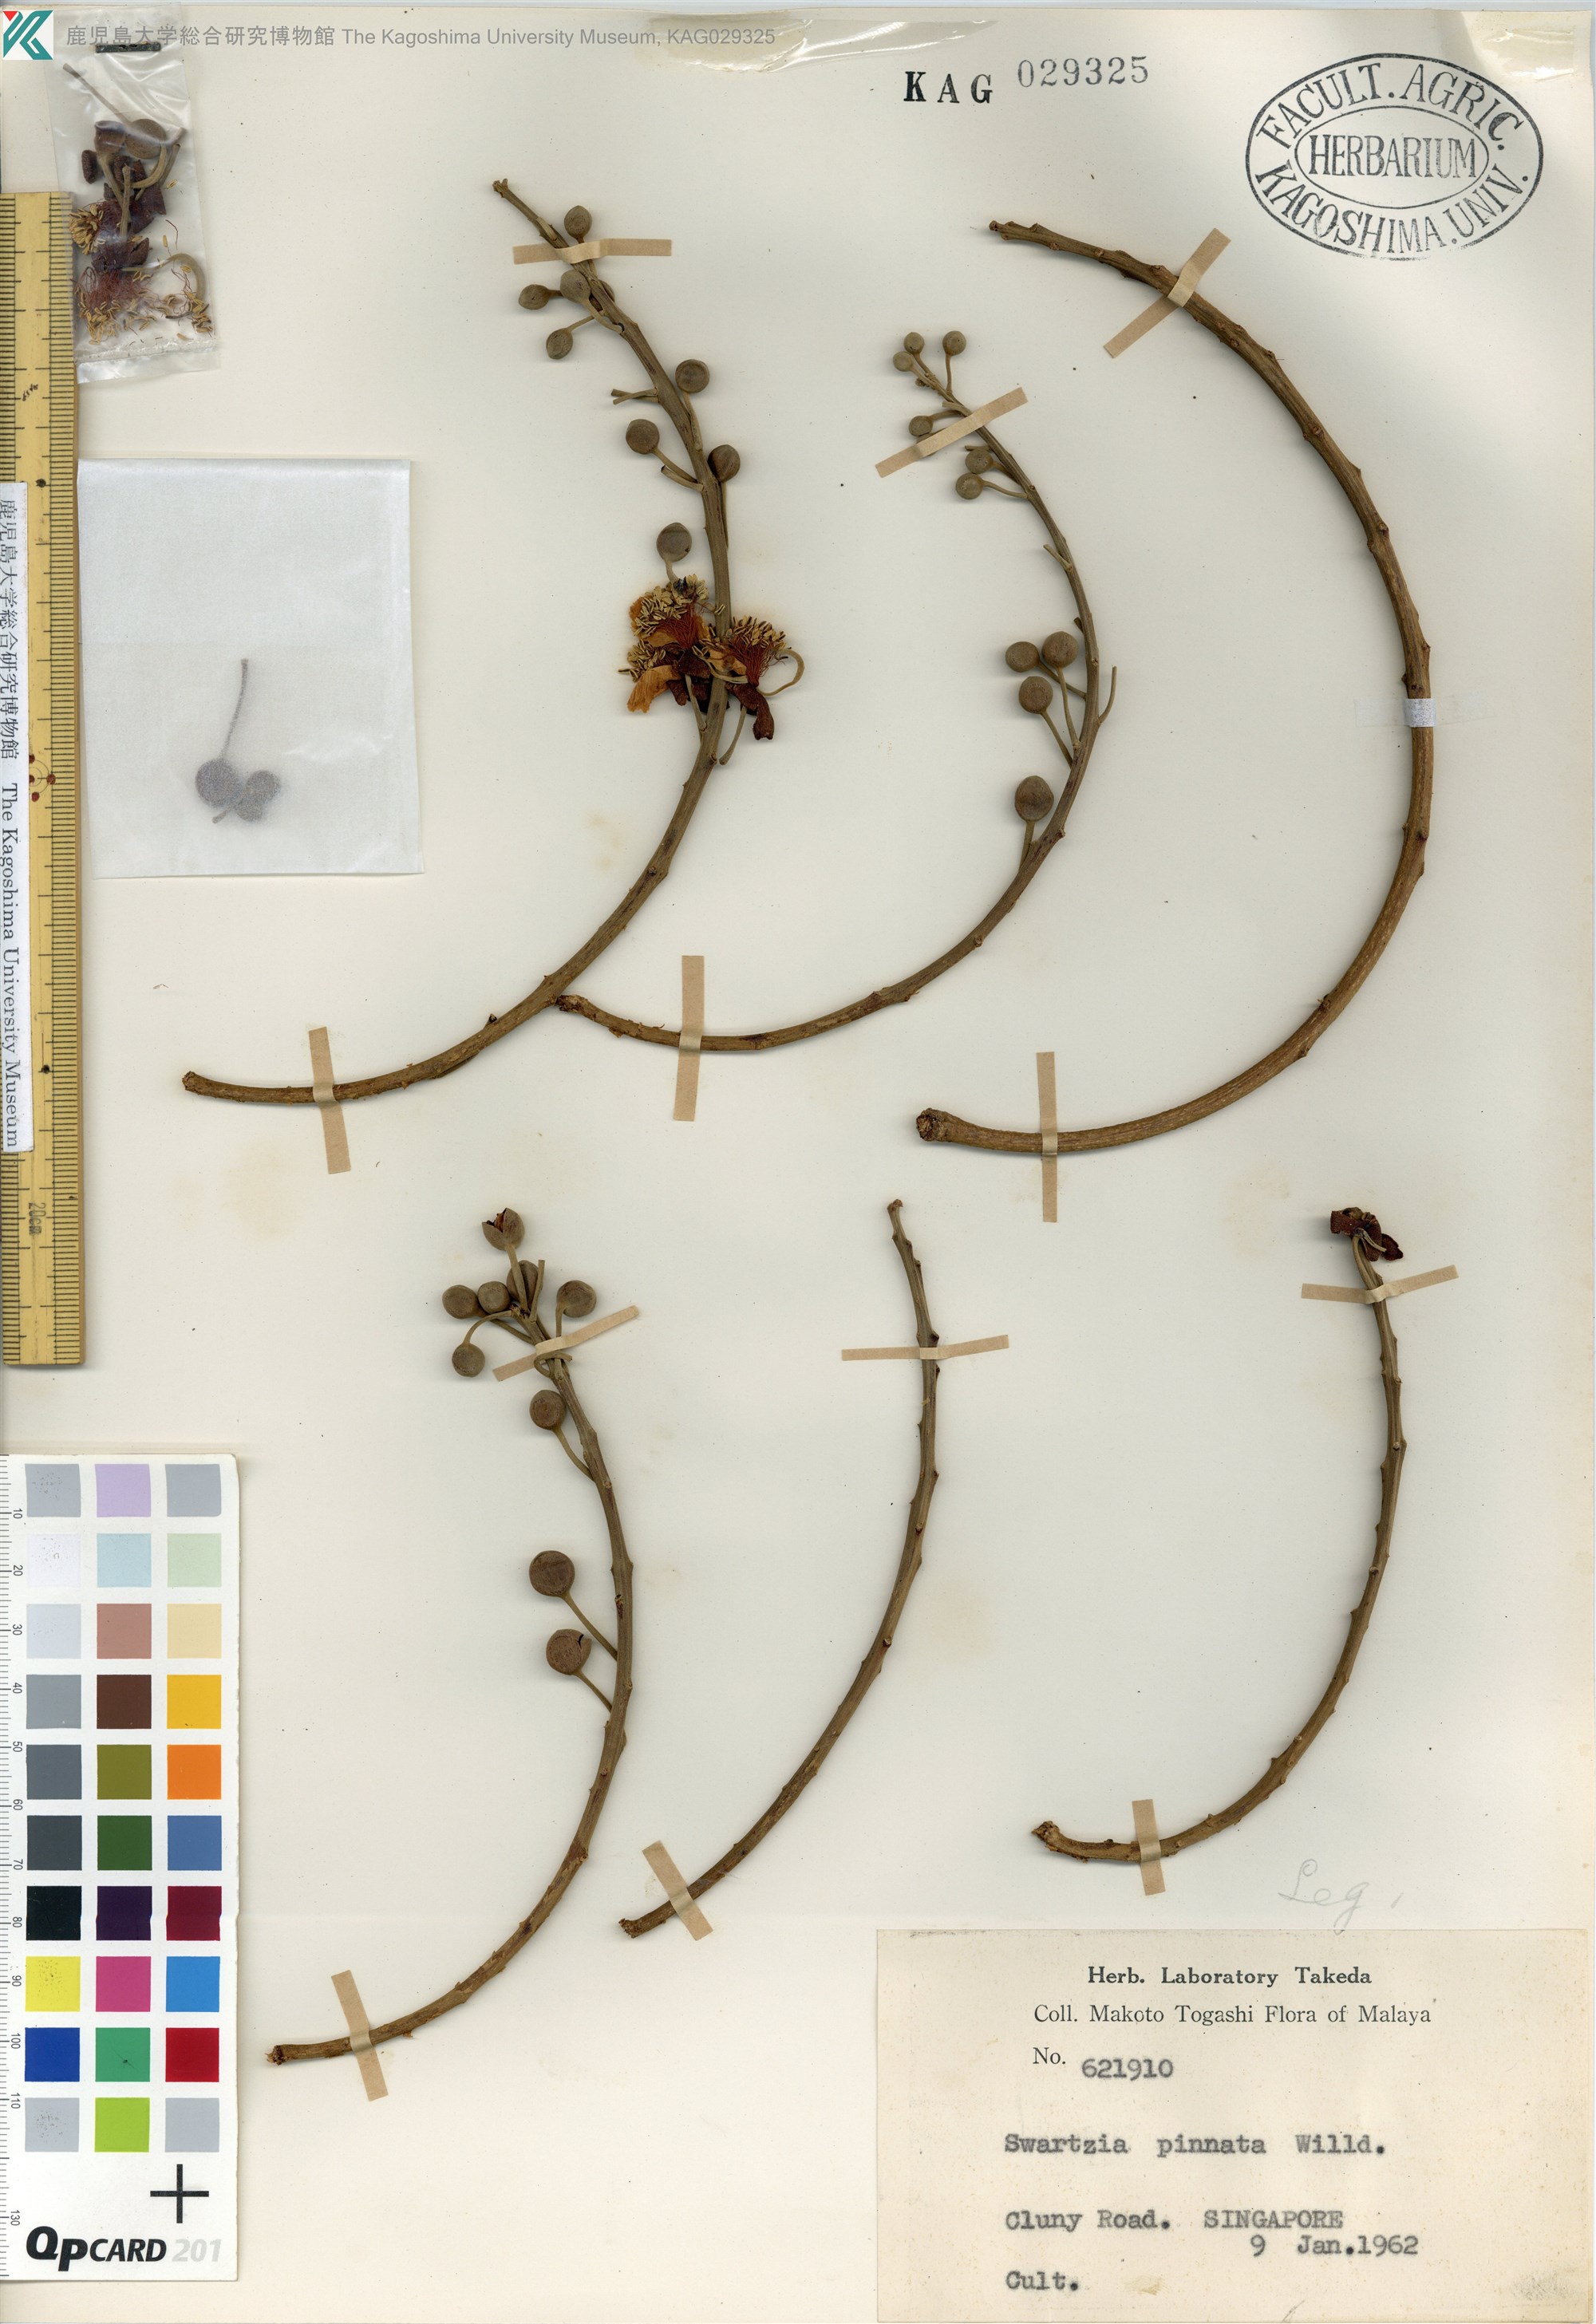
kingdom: Plantae
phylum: Tracheophyta
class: Magnoliopsida
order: Fabales
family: Fabaceae
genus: Swartzia
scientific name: Swartzia pinnata
